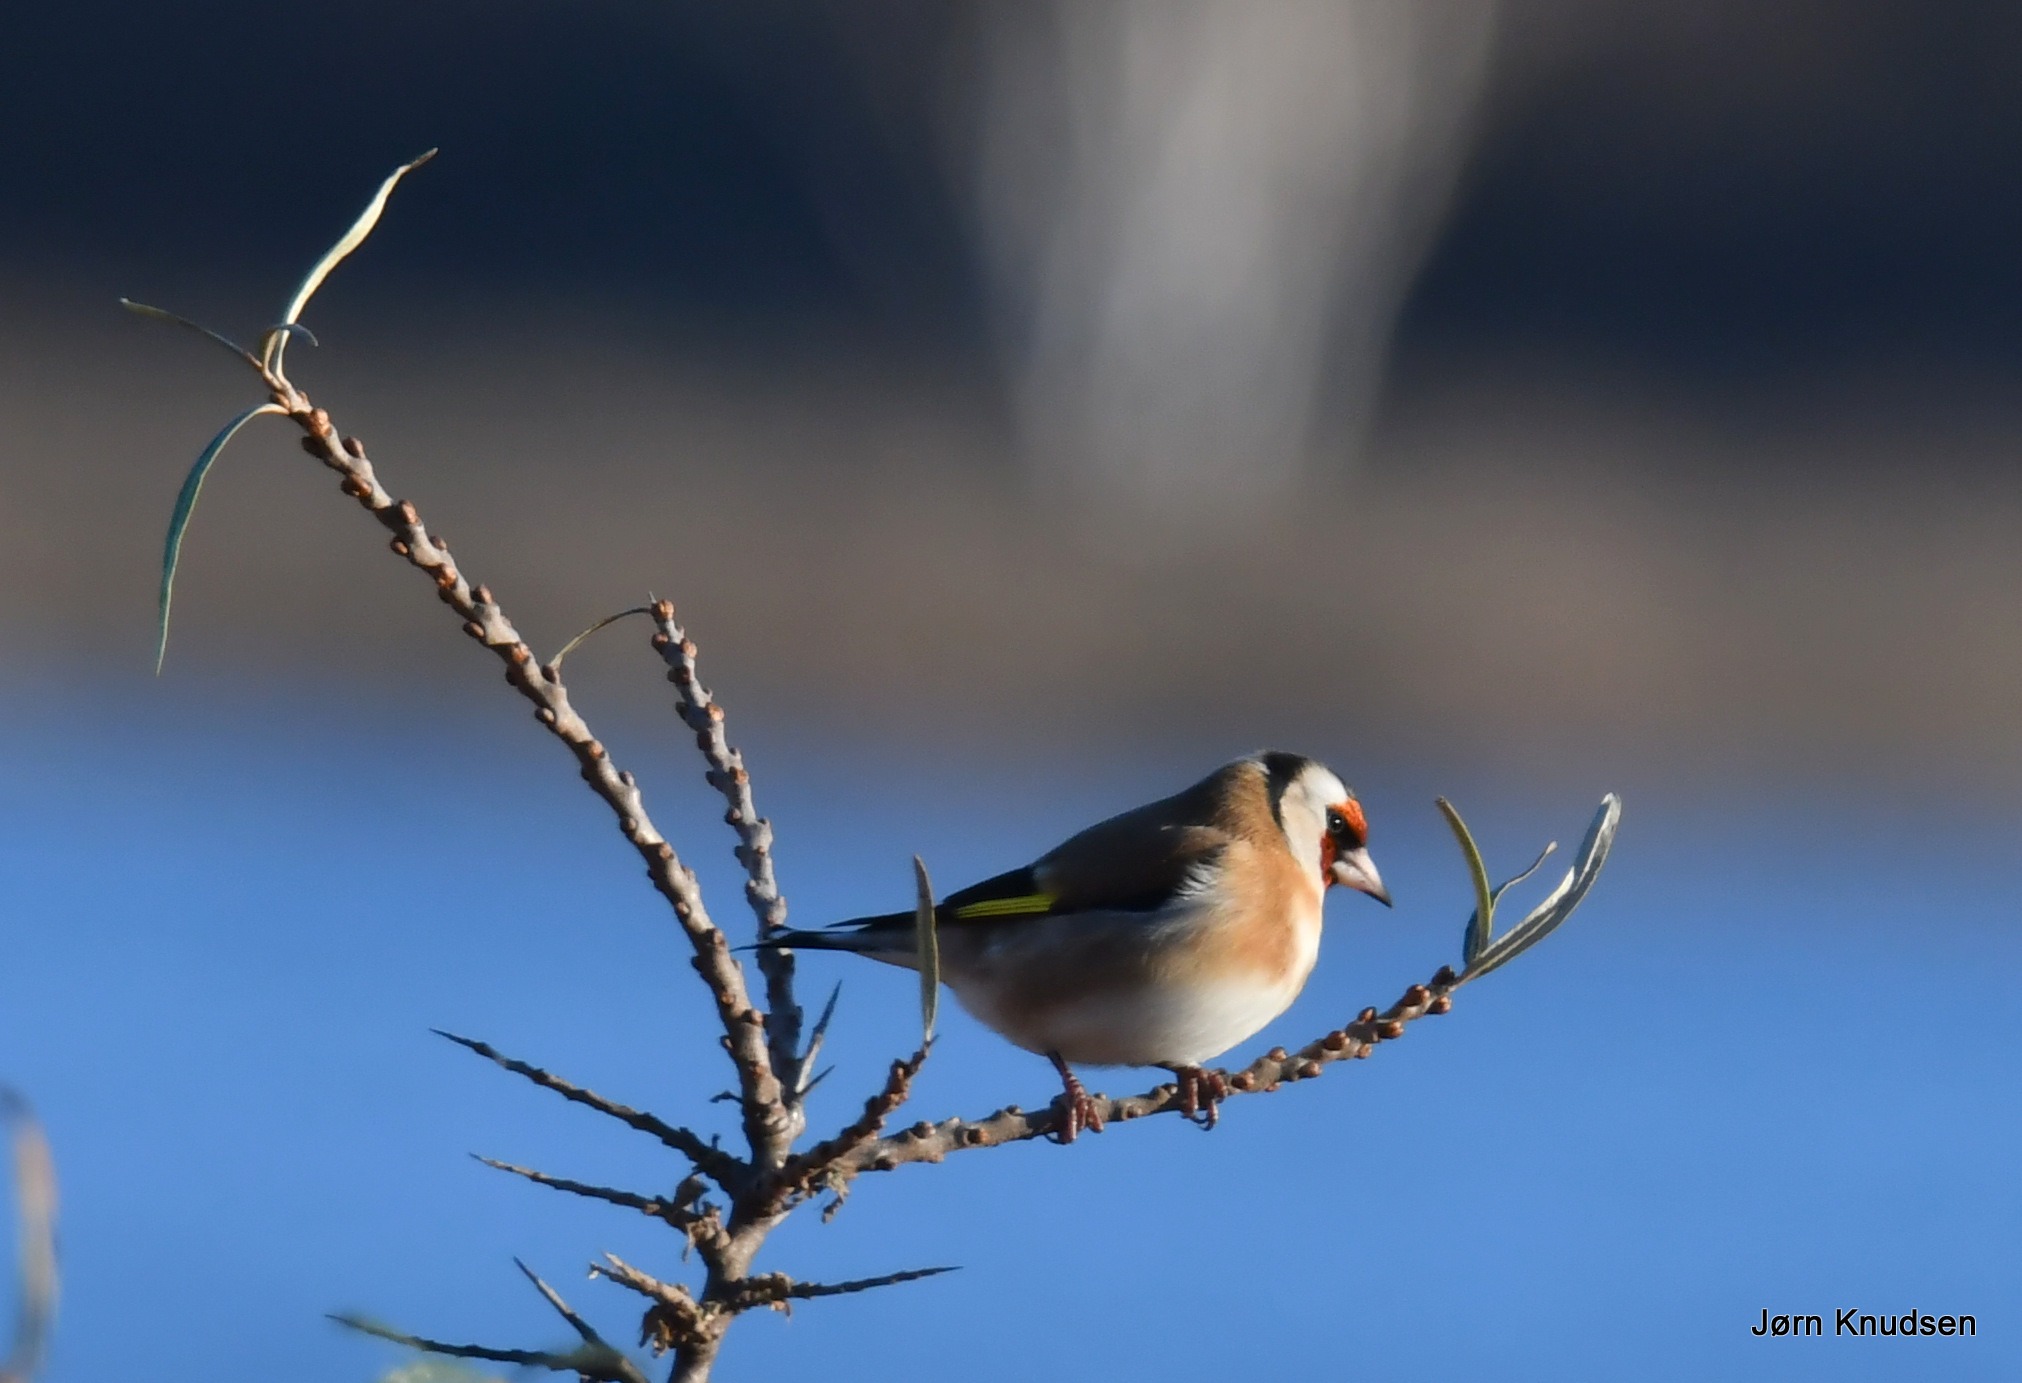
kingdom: Animalia
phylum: Chordata
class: Aves
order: Passeriformes
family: Fringillidae
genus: Carduelis
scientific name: Carduelis carduelis
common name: Stillits
